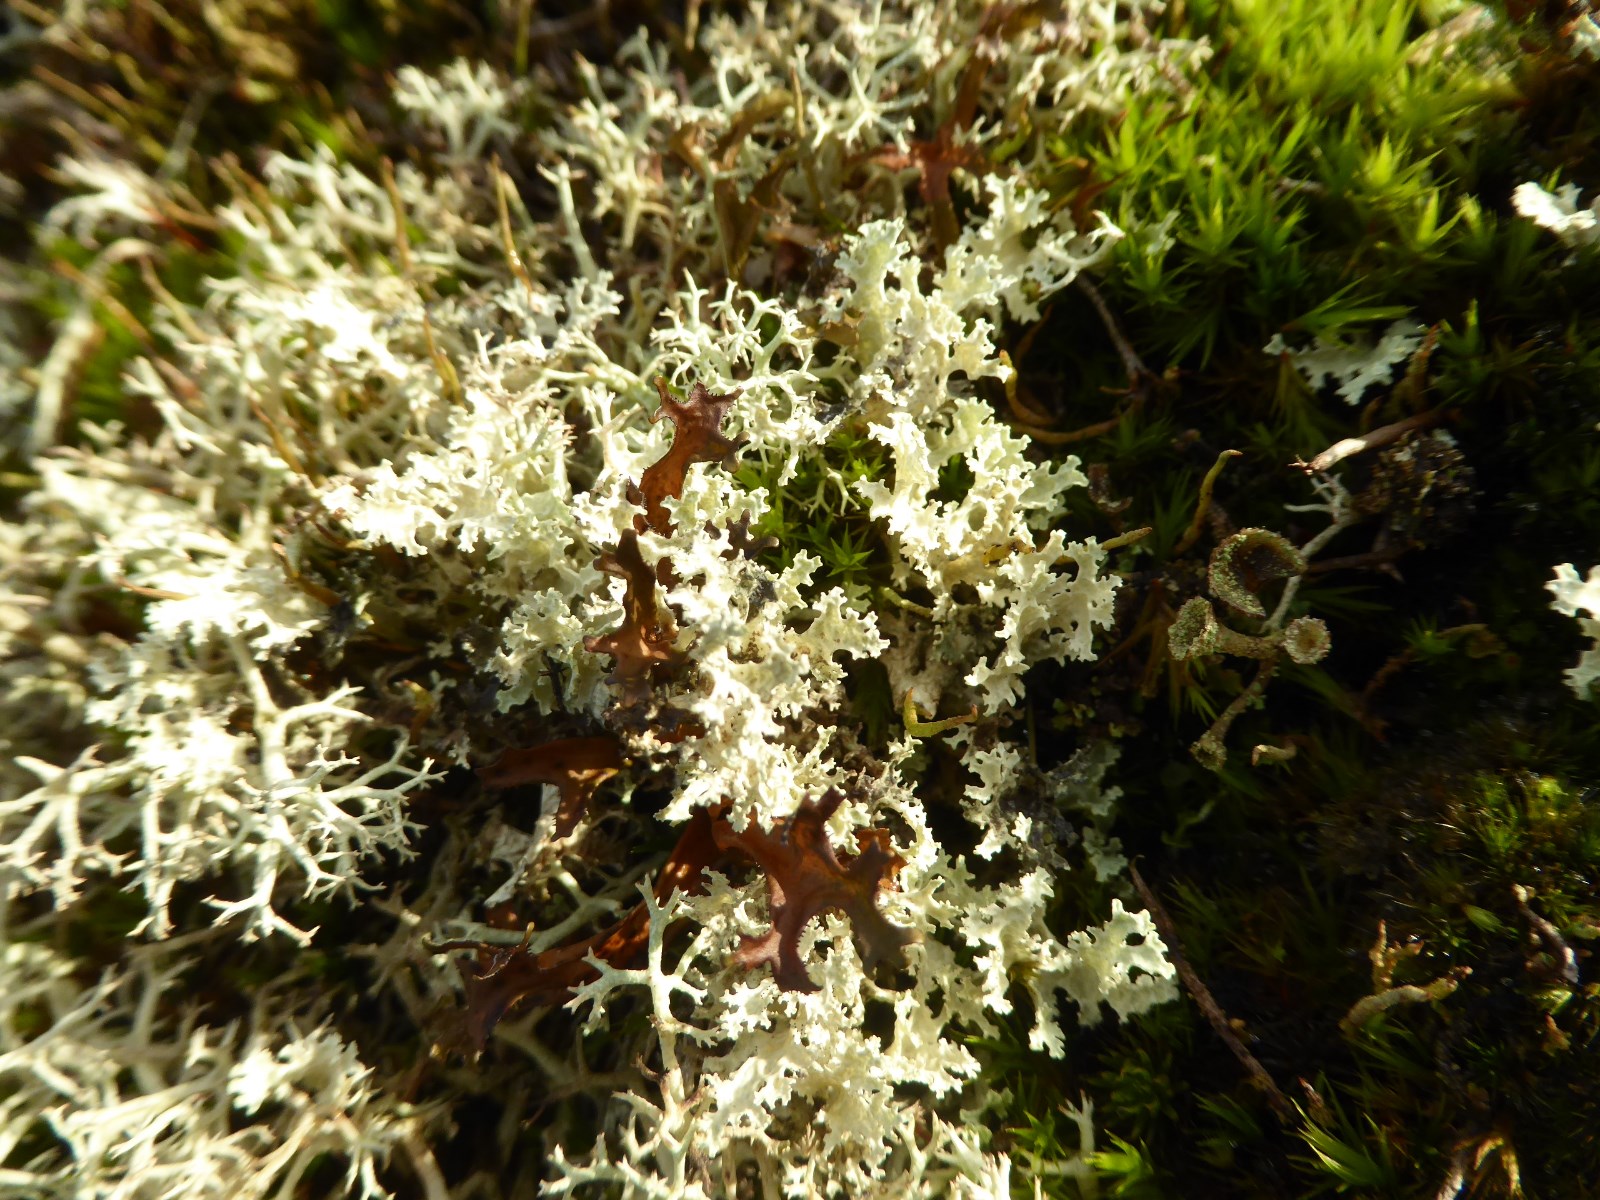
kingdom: Fungi
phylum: Ascomycota
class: Lecanoromycetes
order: Lecanorales
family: Parmeliaceae
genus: Nephromopsis
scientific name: Nephromopsis nivalis
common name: sne-kruslav
